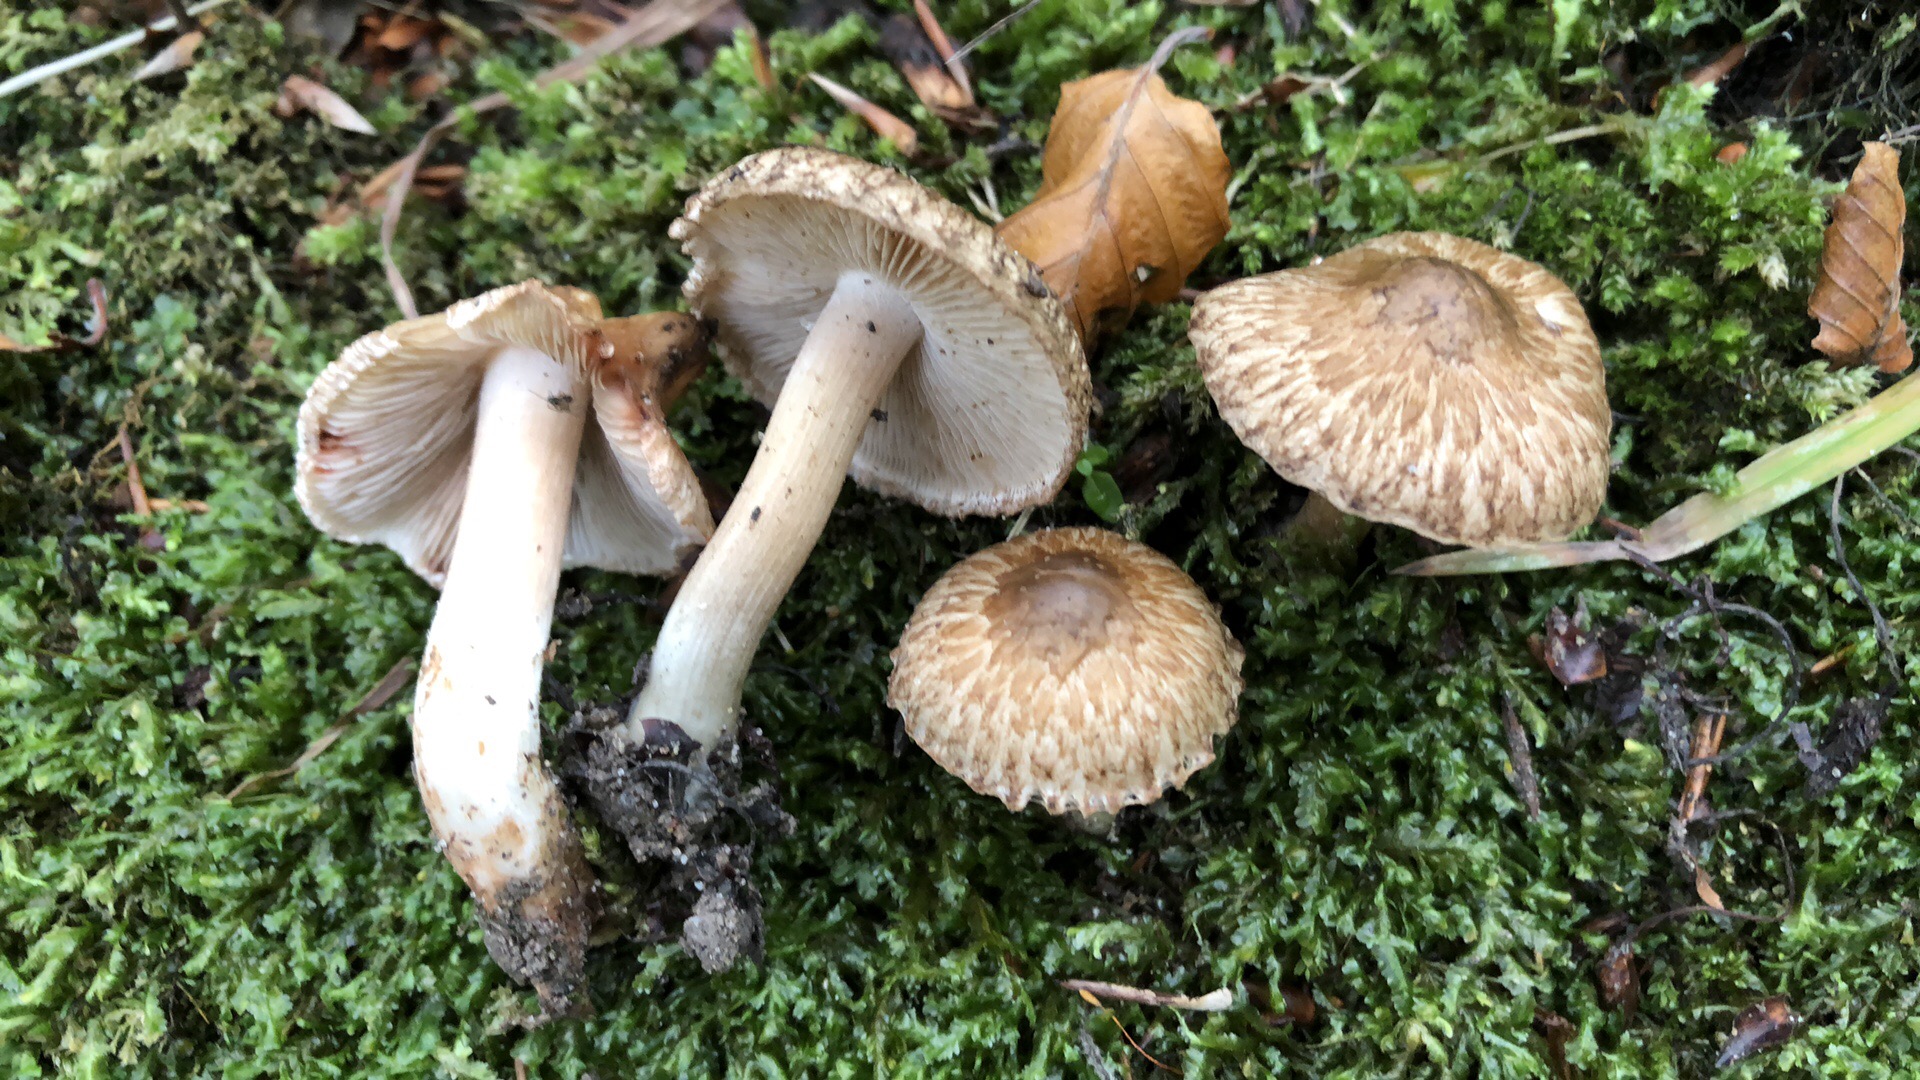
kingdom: Fungi
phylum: Basidiomycota
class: Agaricomycetes
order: Agaricales
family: Inocybaceae
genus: Inosperma
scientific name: Inosperma bongardii
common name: Bongards trævlhat
